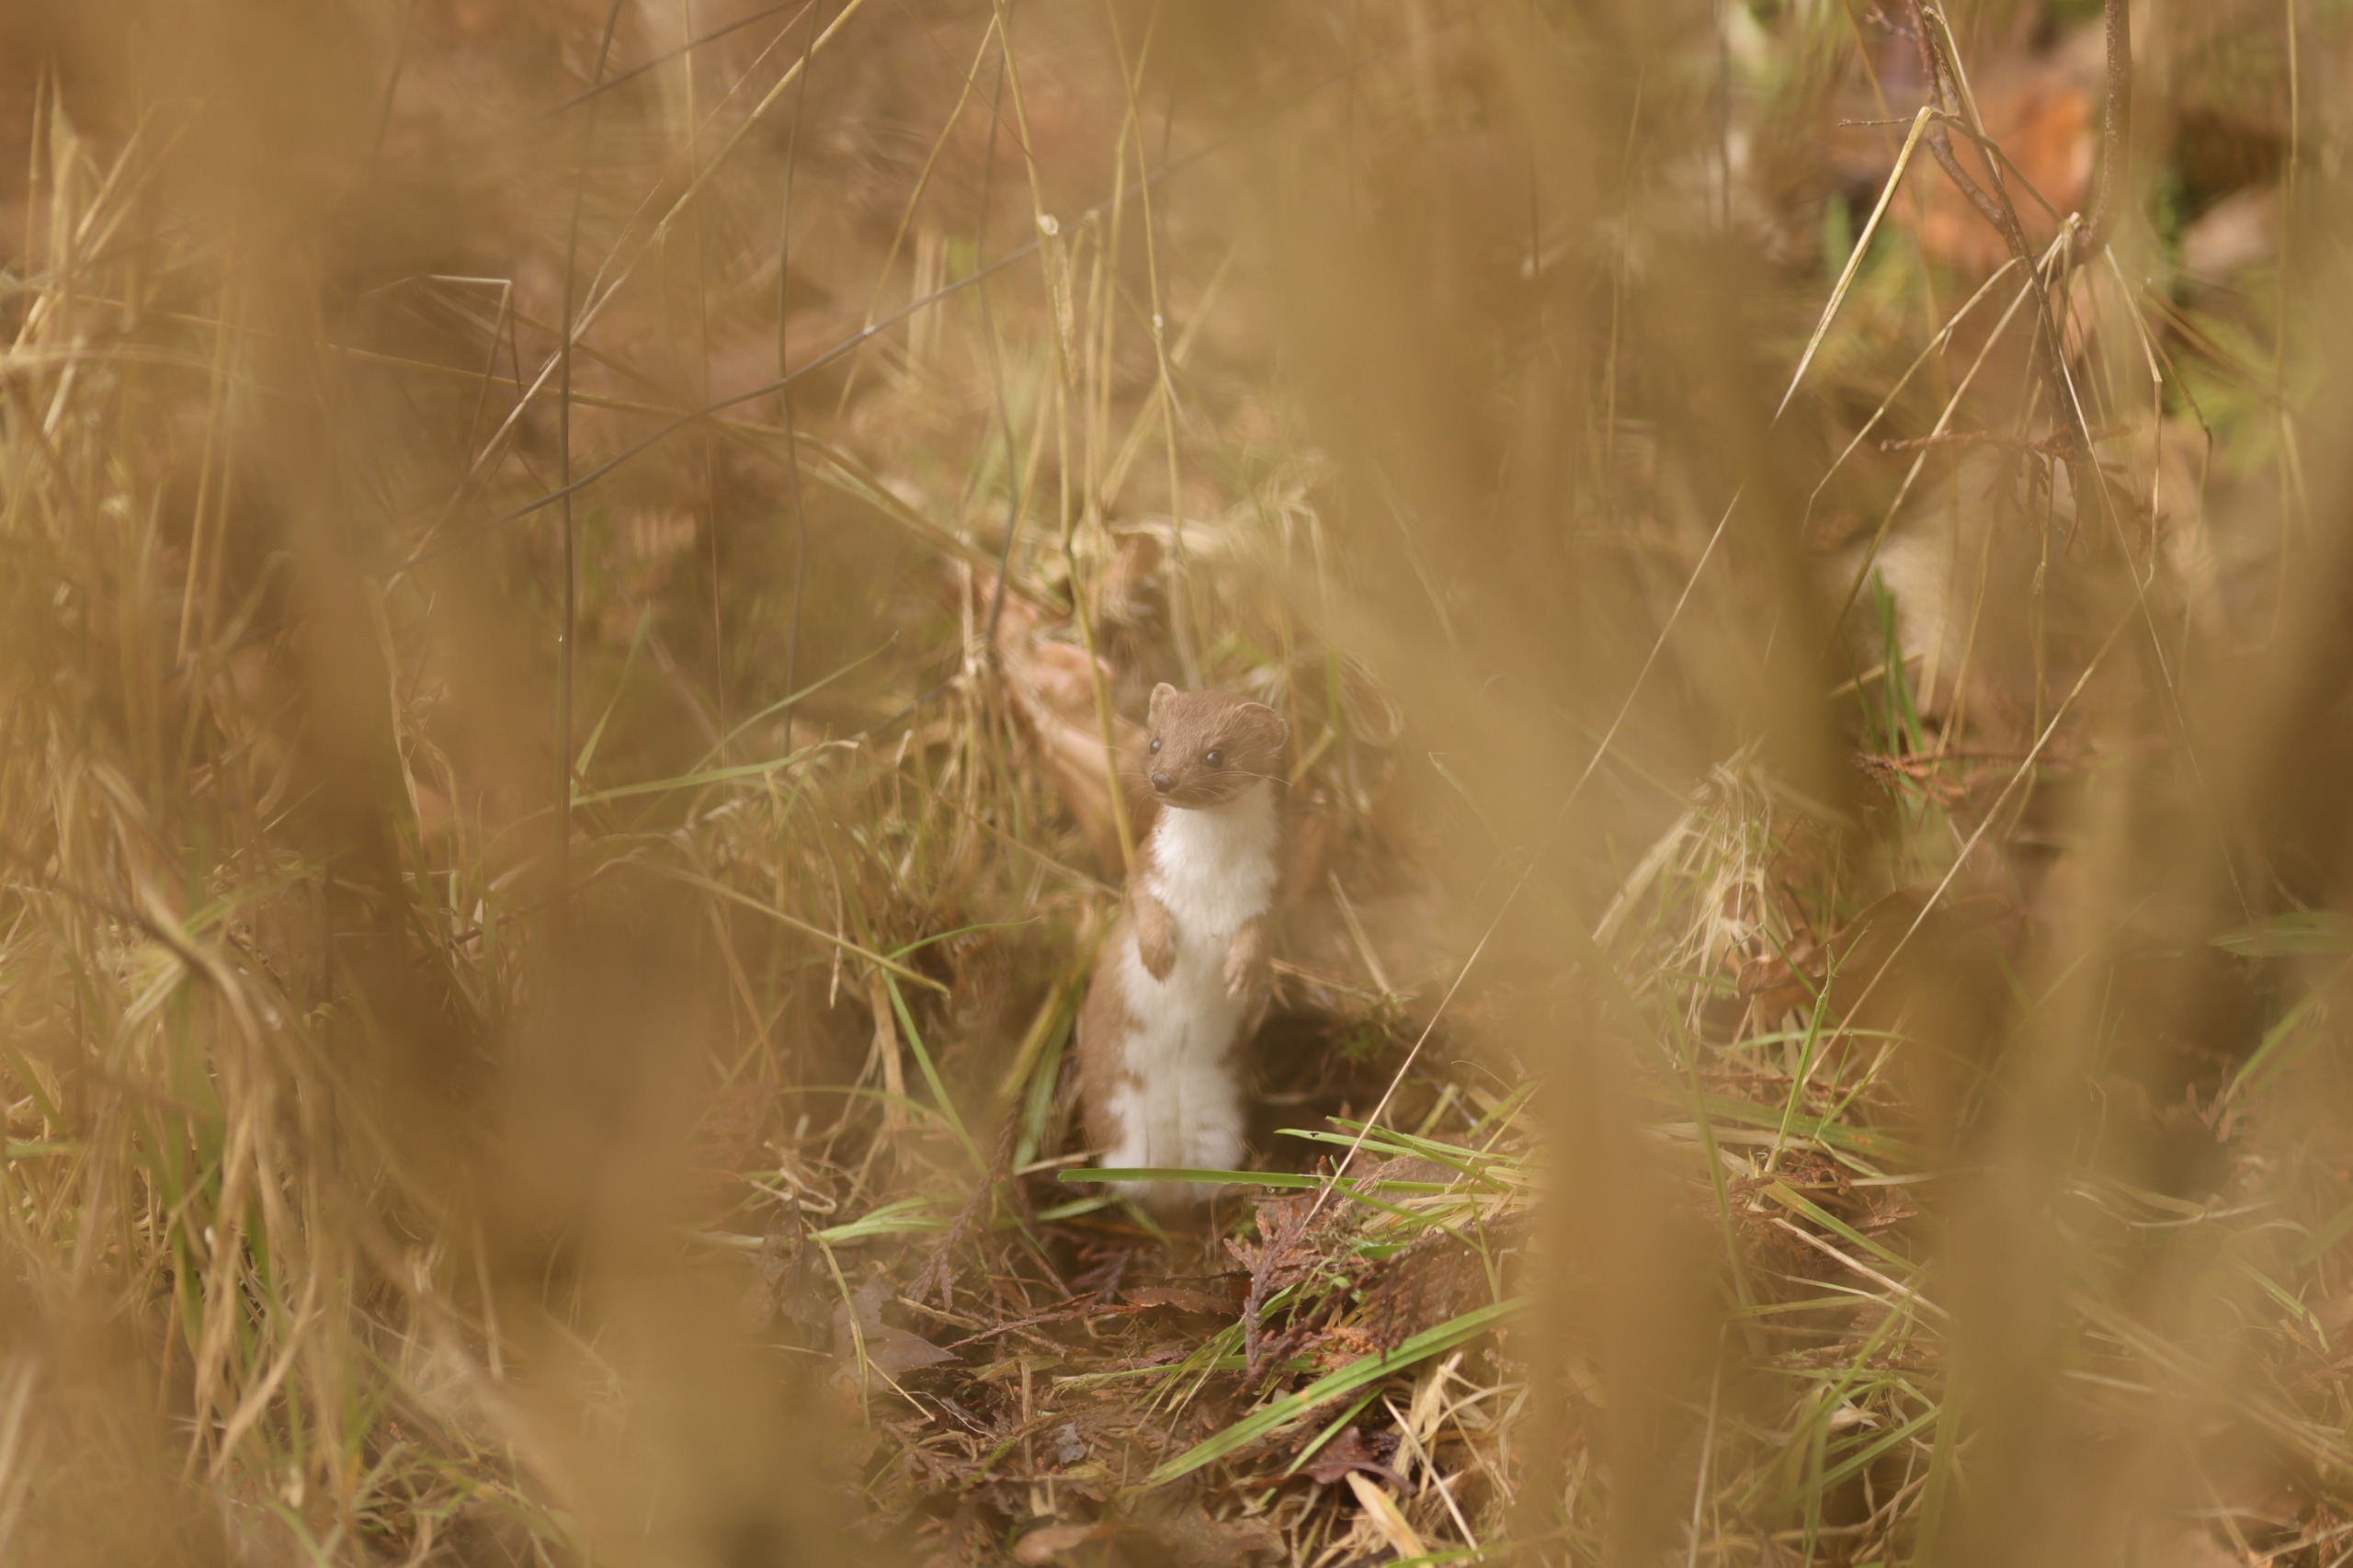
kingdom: Animalia
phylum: Chordata
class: Mammalia
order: Carnivora
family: Mustelidae
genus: Mustela
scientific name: Mustela nivalis
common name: Brud
